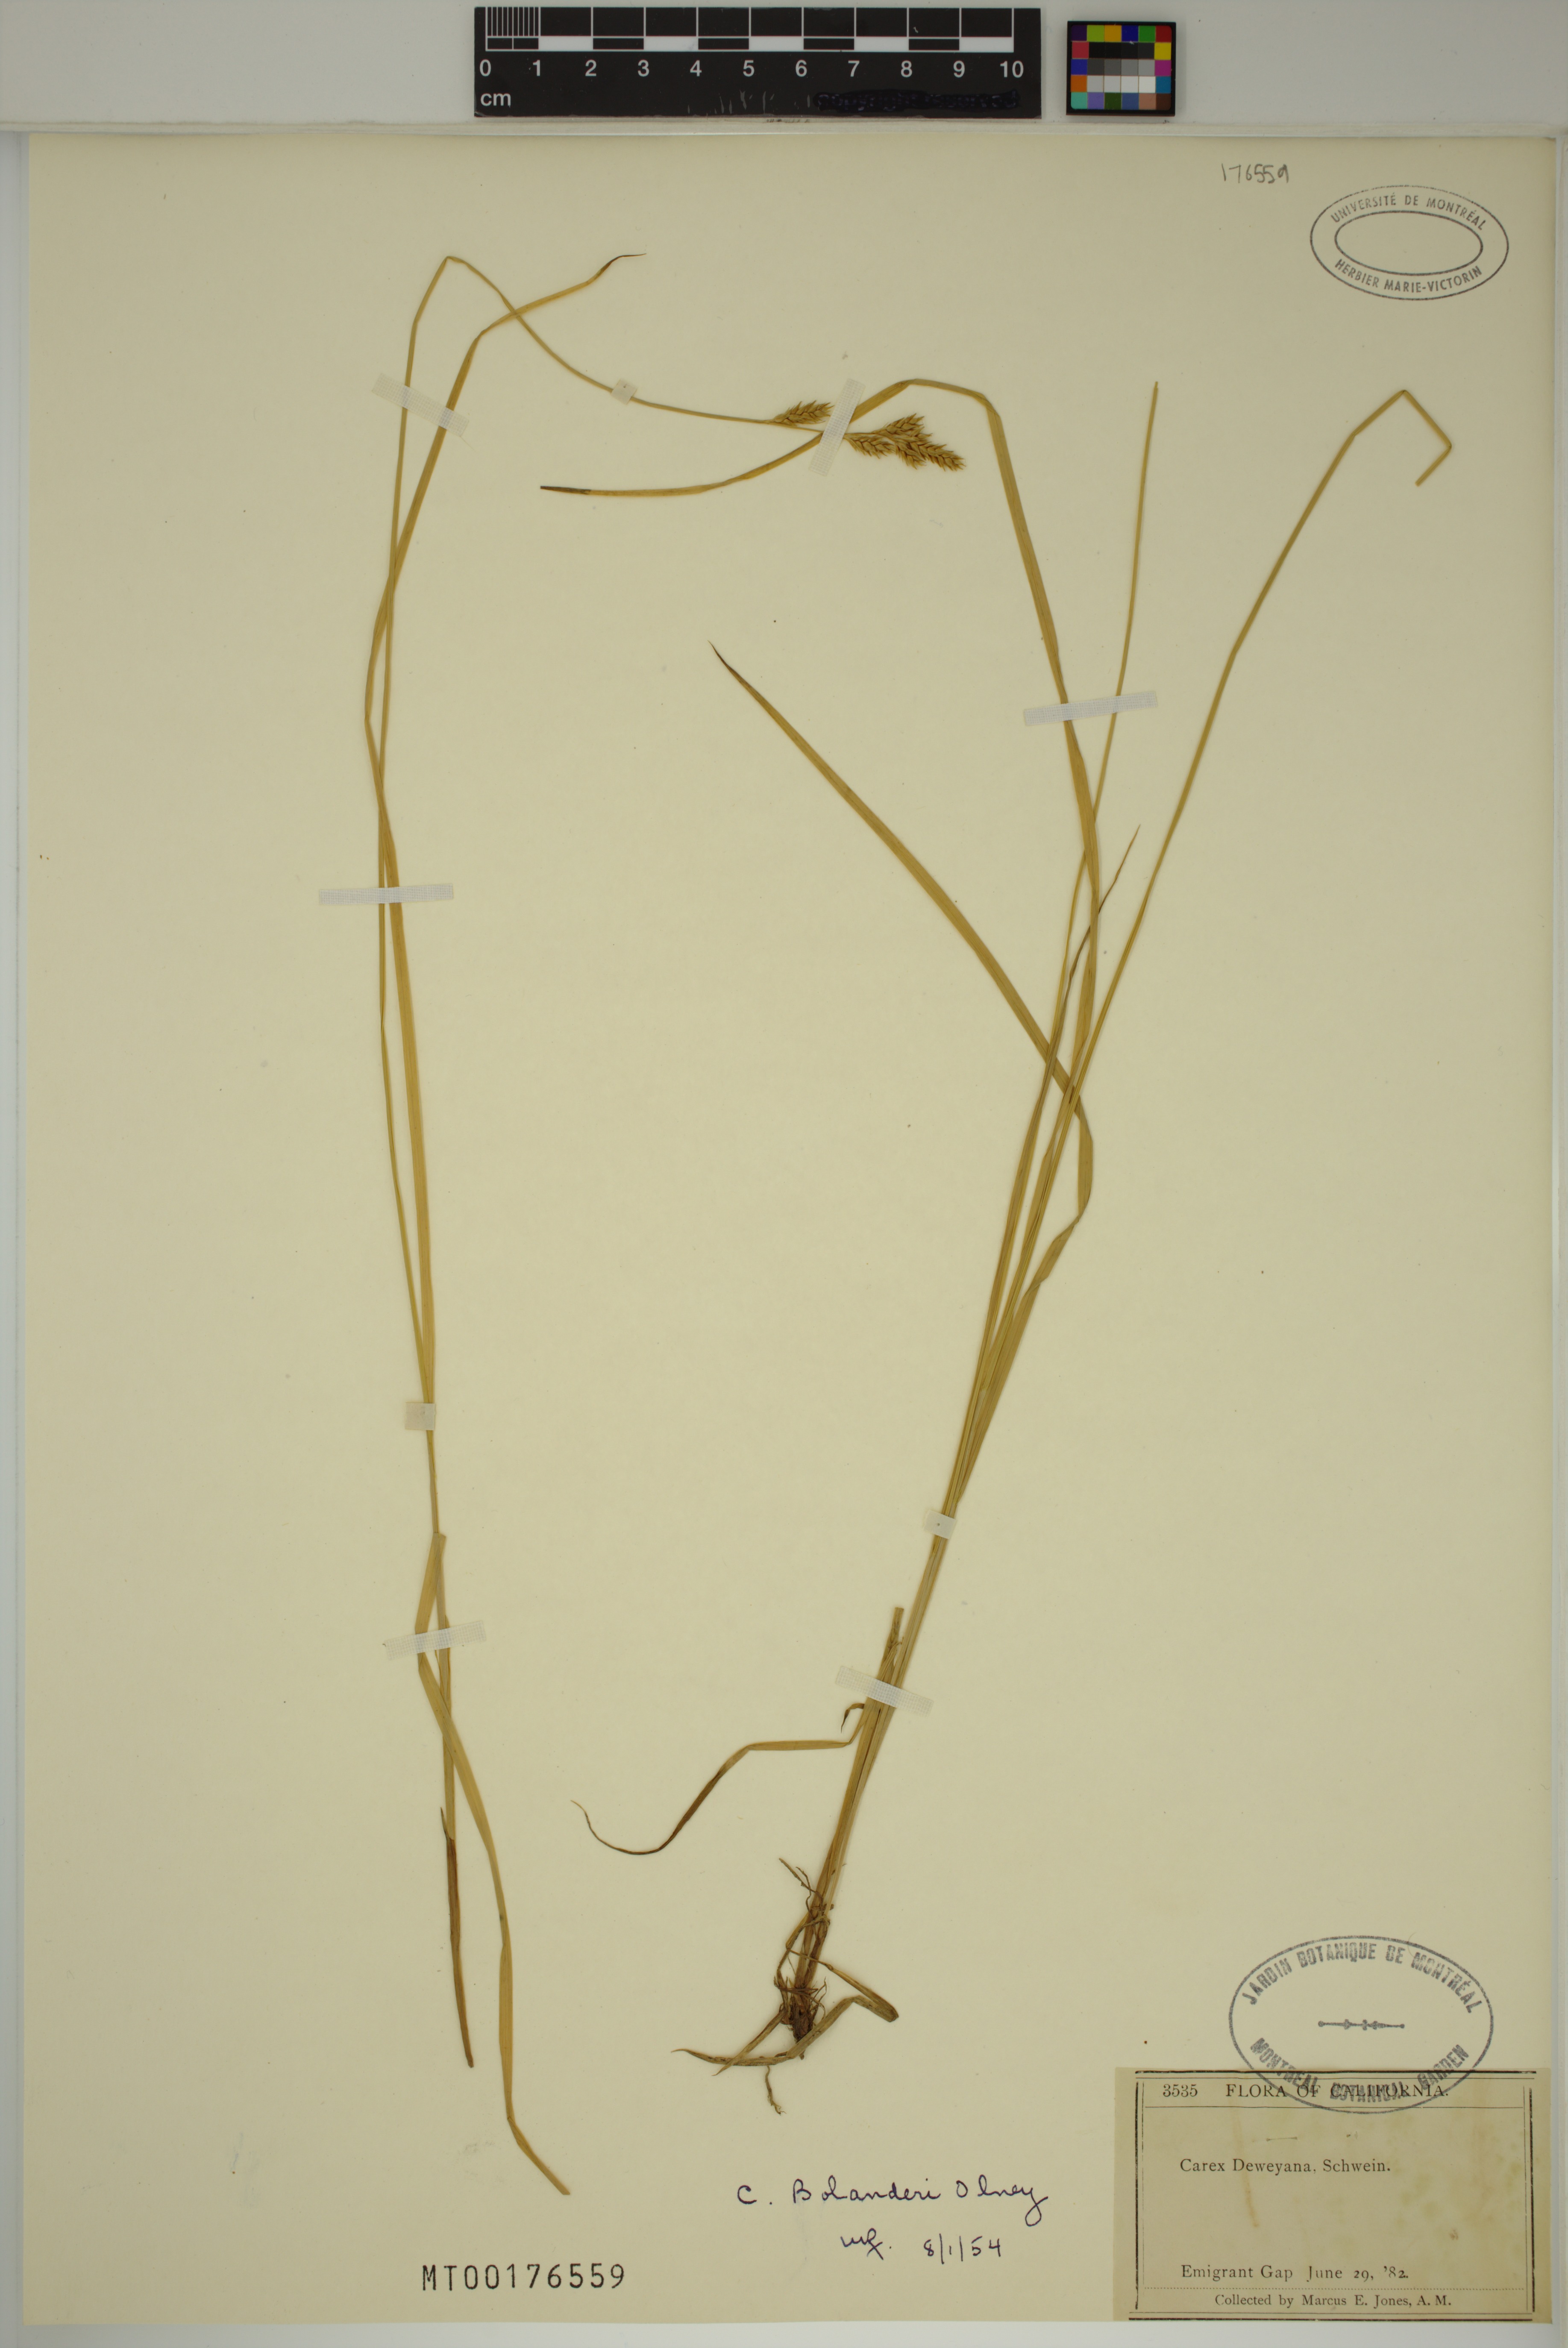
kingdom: Plantae
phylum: Tracheophyta
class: Liliopsida
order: Poales
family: Cyperaceae
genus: Carex
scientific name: Carex bolanderi
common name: Bolander's sedge
